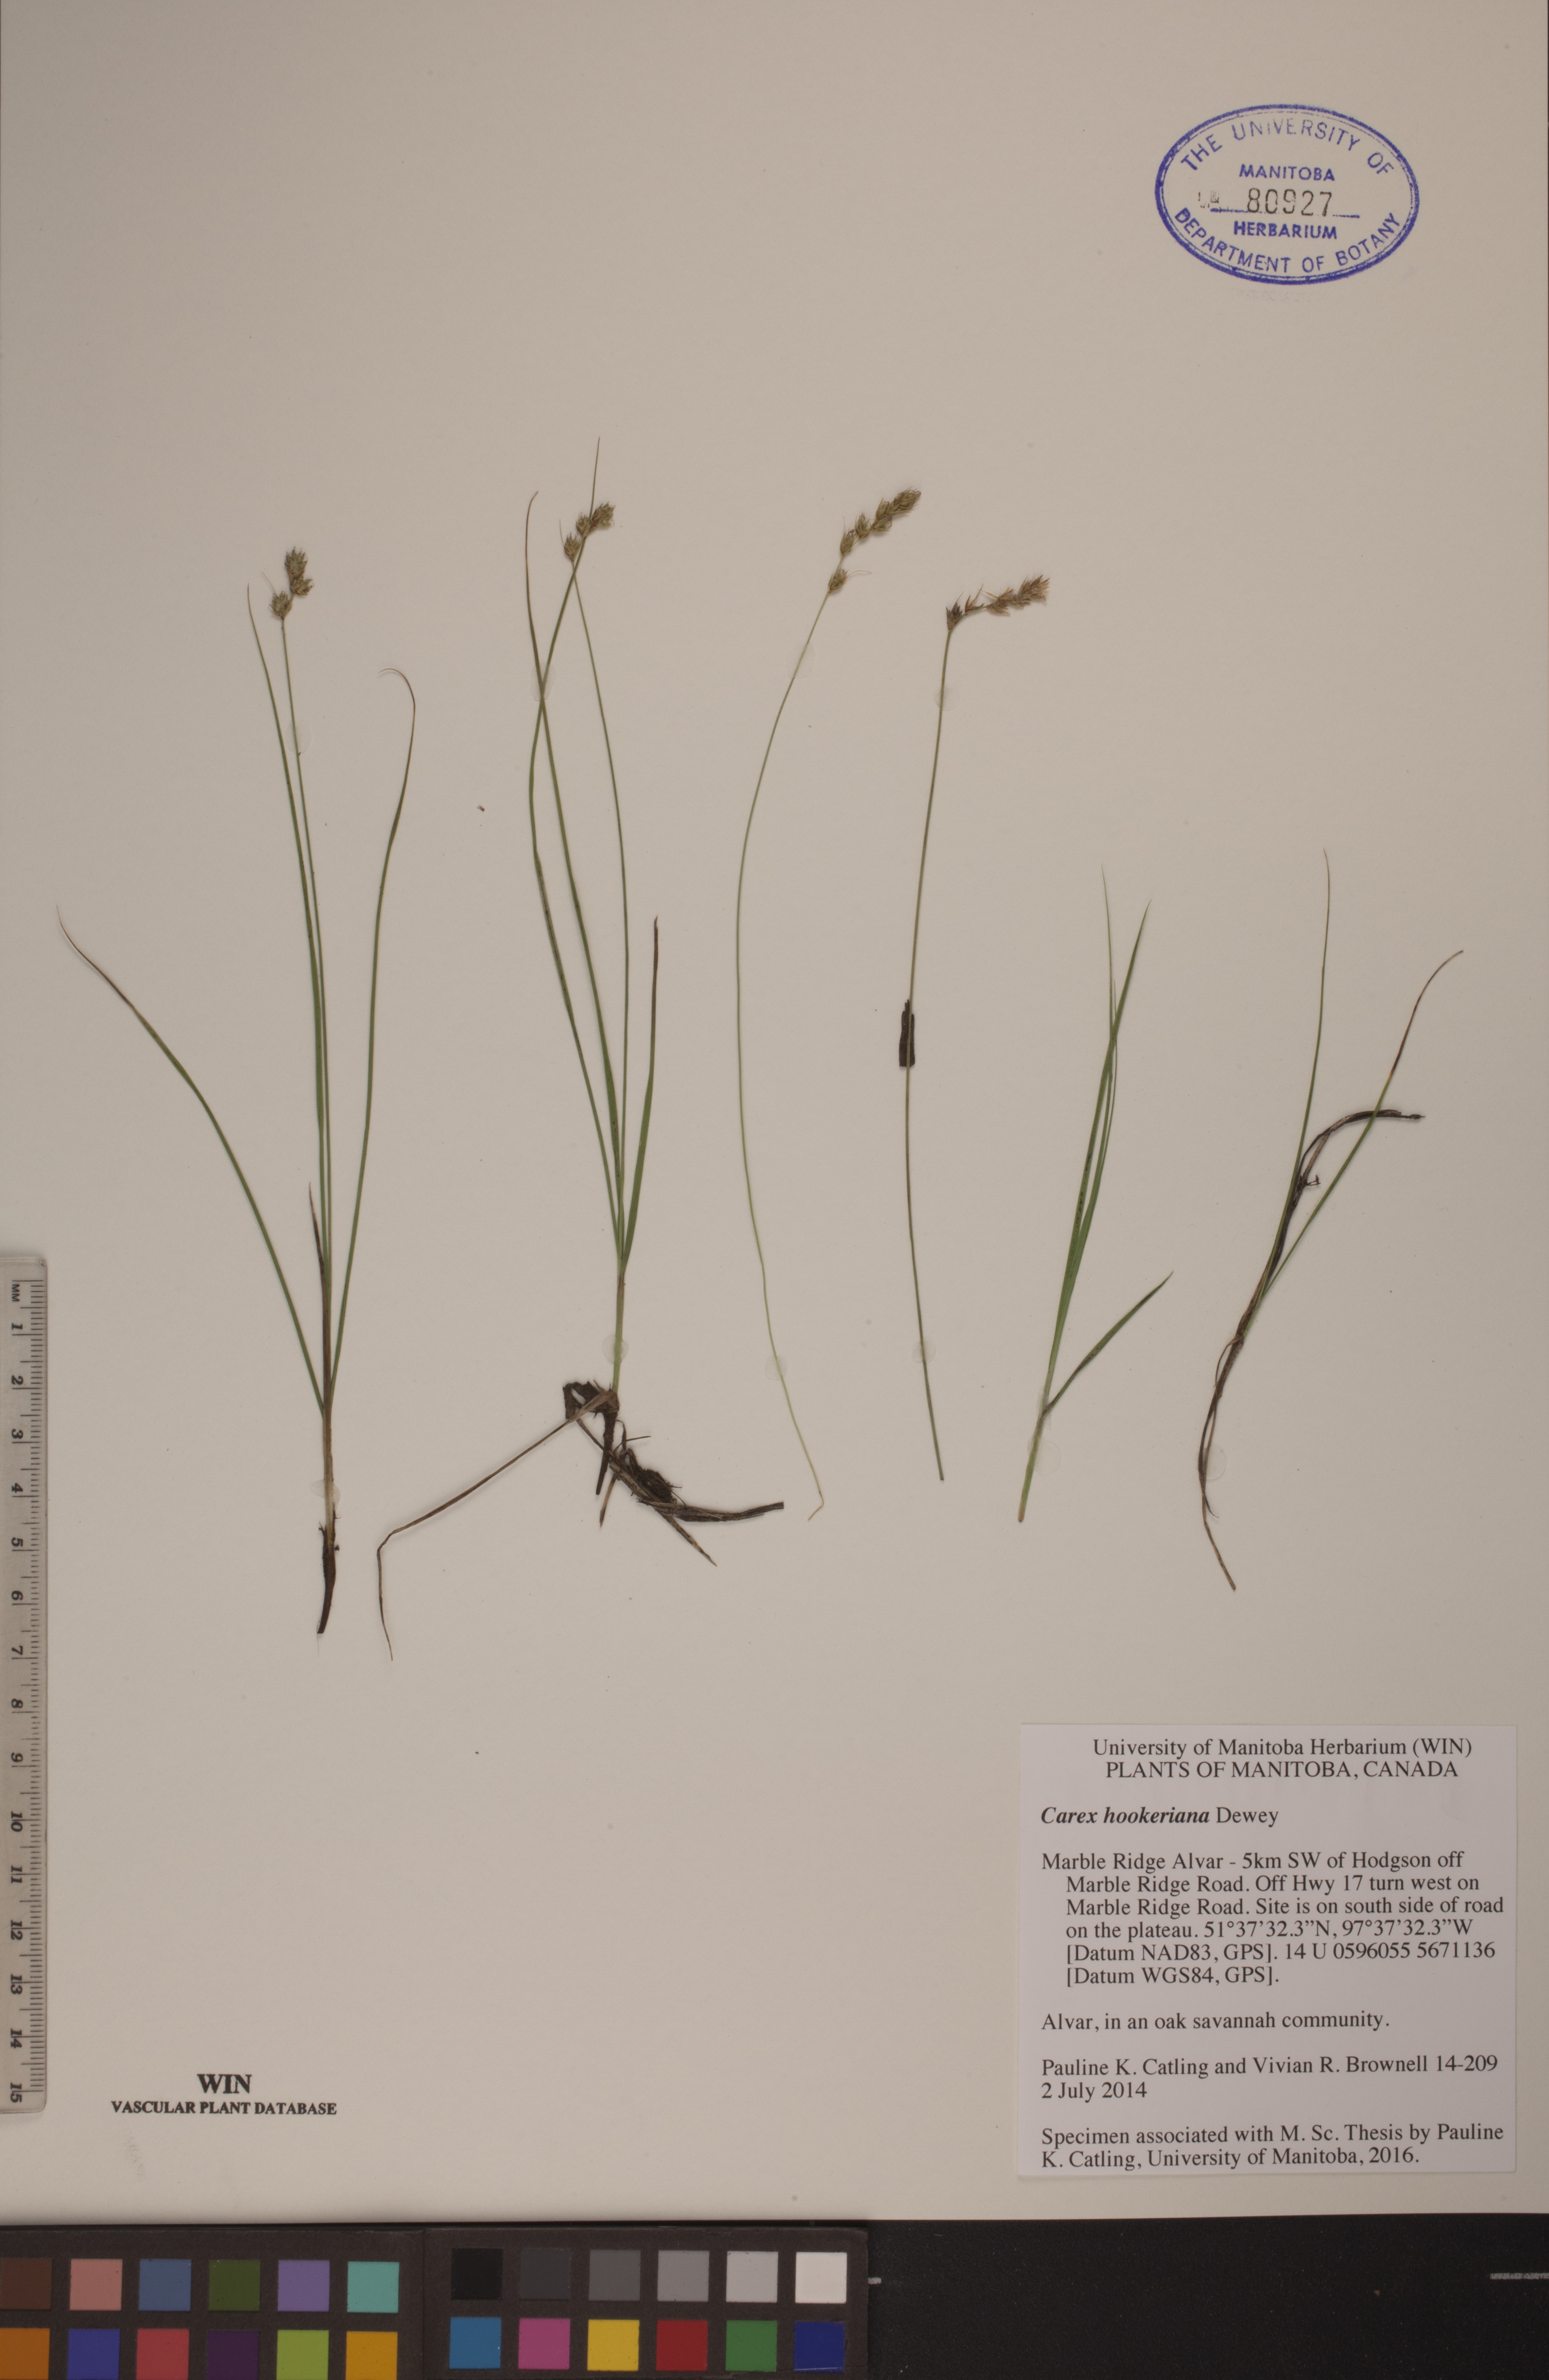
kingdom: Plantae
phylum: Tracheophyta
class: Liliopsida
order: Poales
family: Cyperaceae
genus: Carex
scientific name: Carex hookeriana
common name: Hooker's sedge
